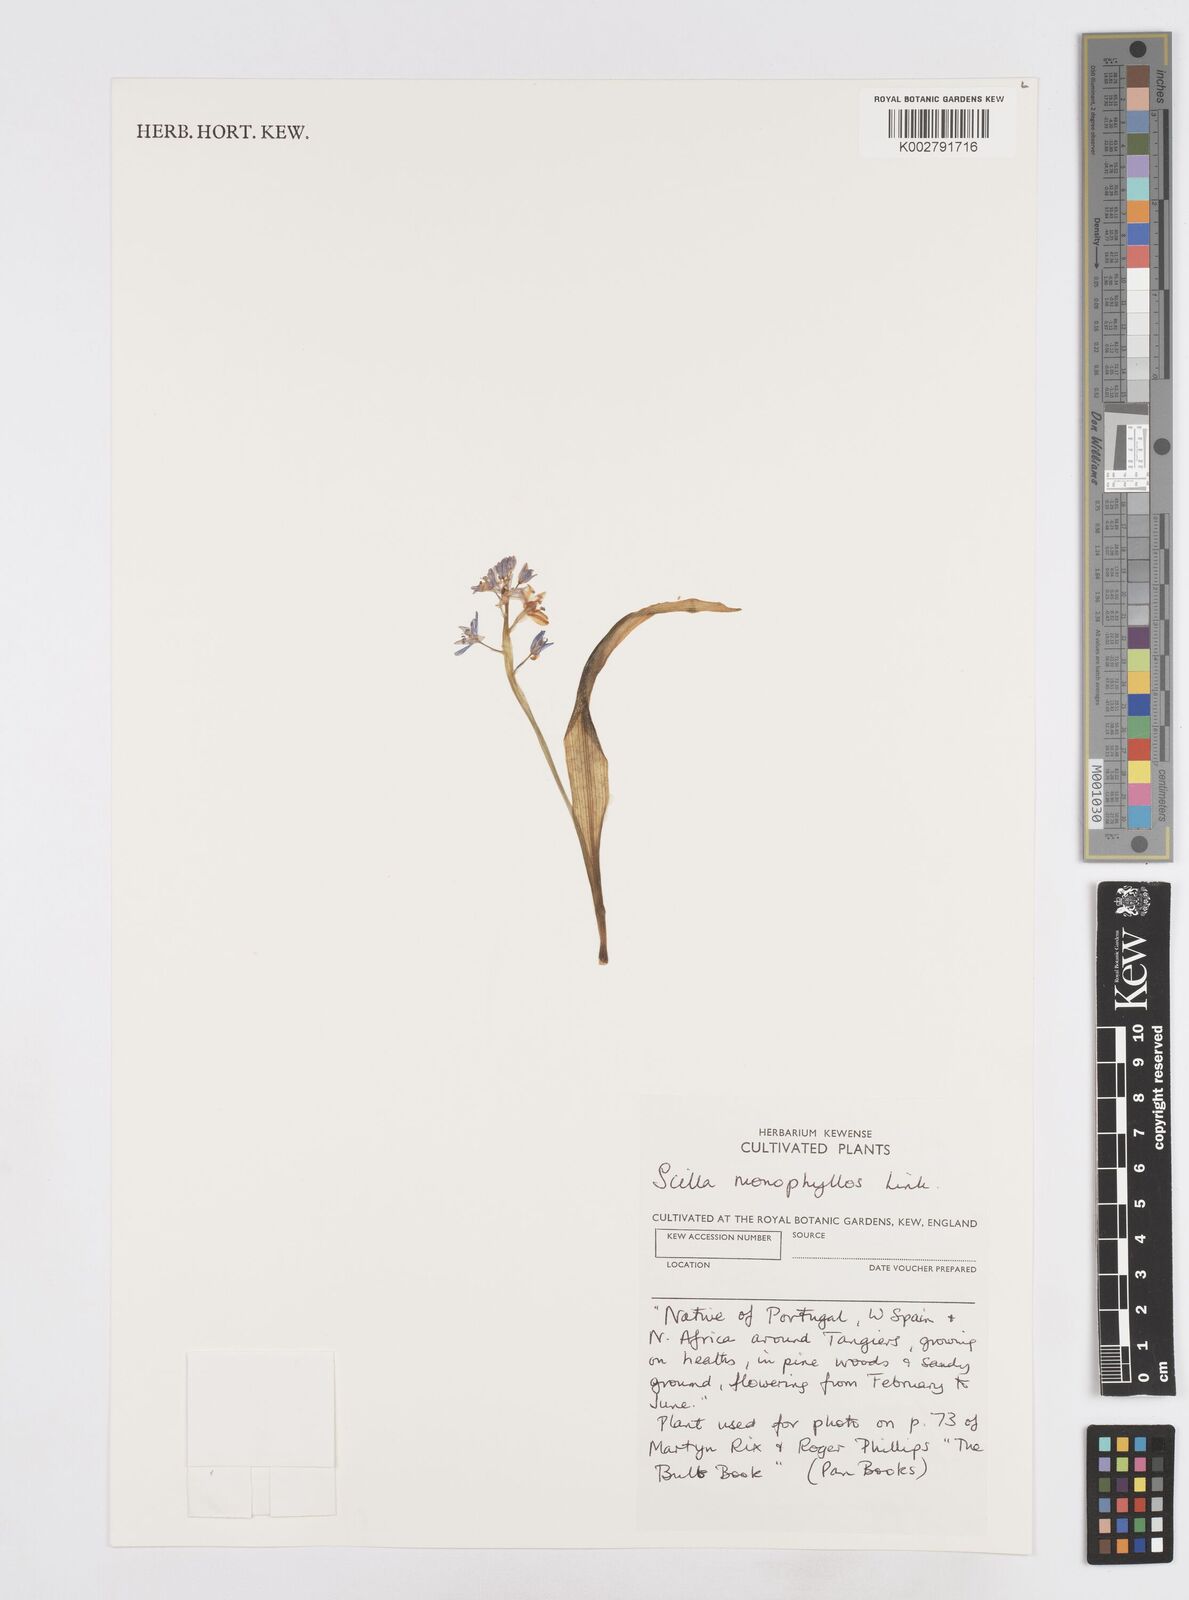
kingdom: Plantae
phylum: Tracheophyta
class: Liliopsida
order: Asparagales
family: Asparagaceae
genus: Scilla
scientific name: Scilla monophyllos
